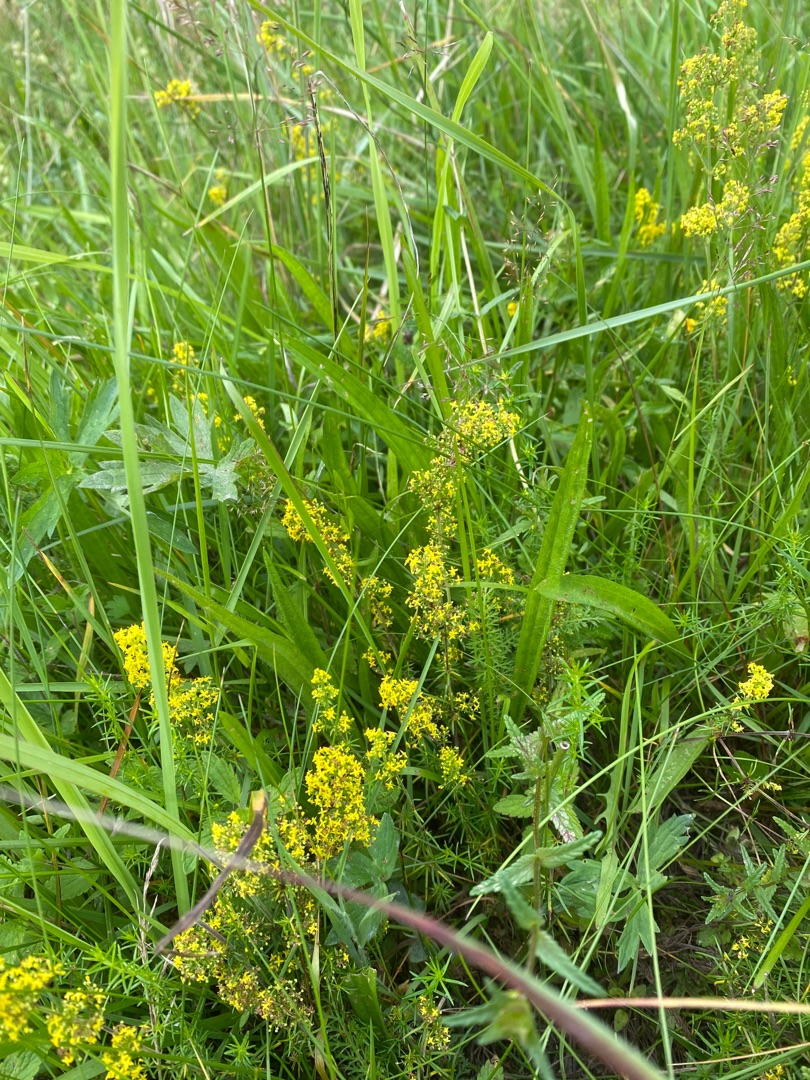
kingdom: Plantae
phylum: Tracheophyta
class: Magnoliopsida
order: Gentianales
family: Rubiaceae
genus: Galium
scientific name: Galium verum
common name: Gul snerre
